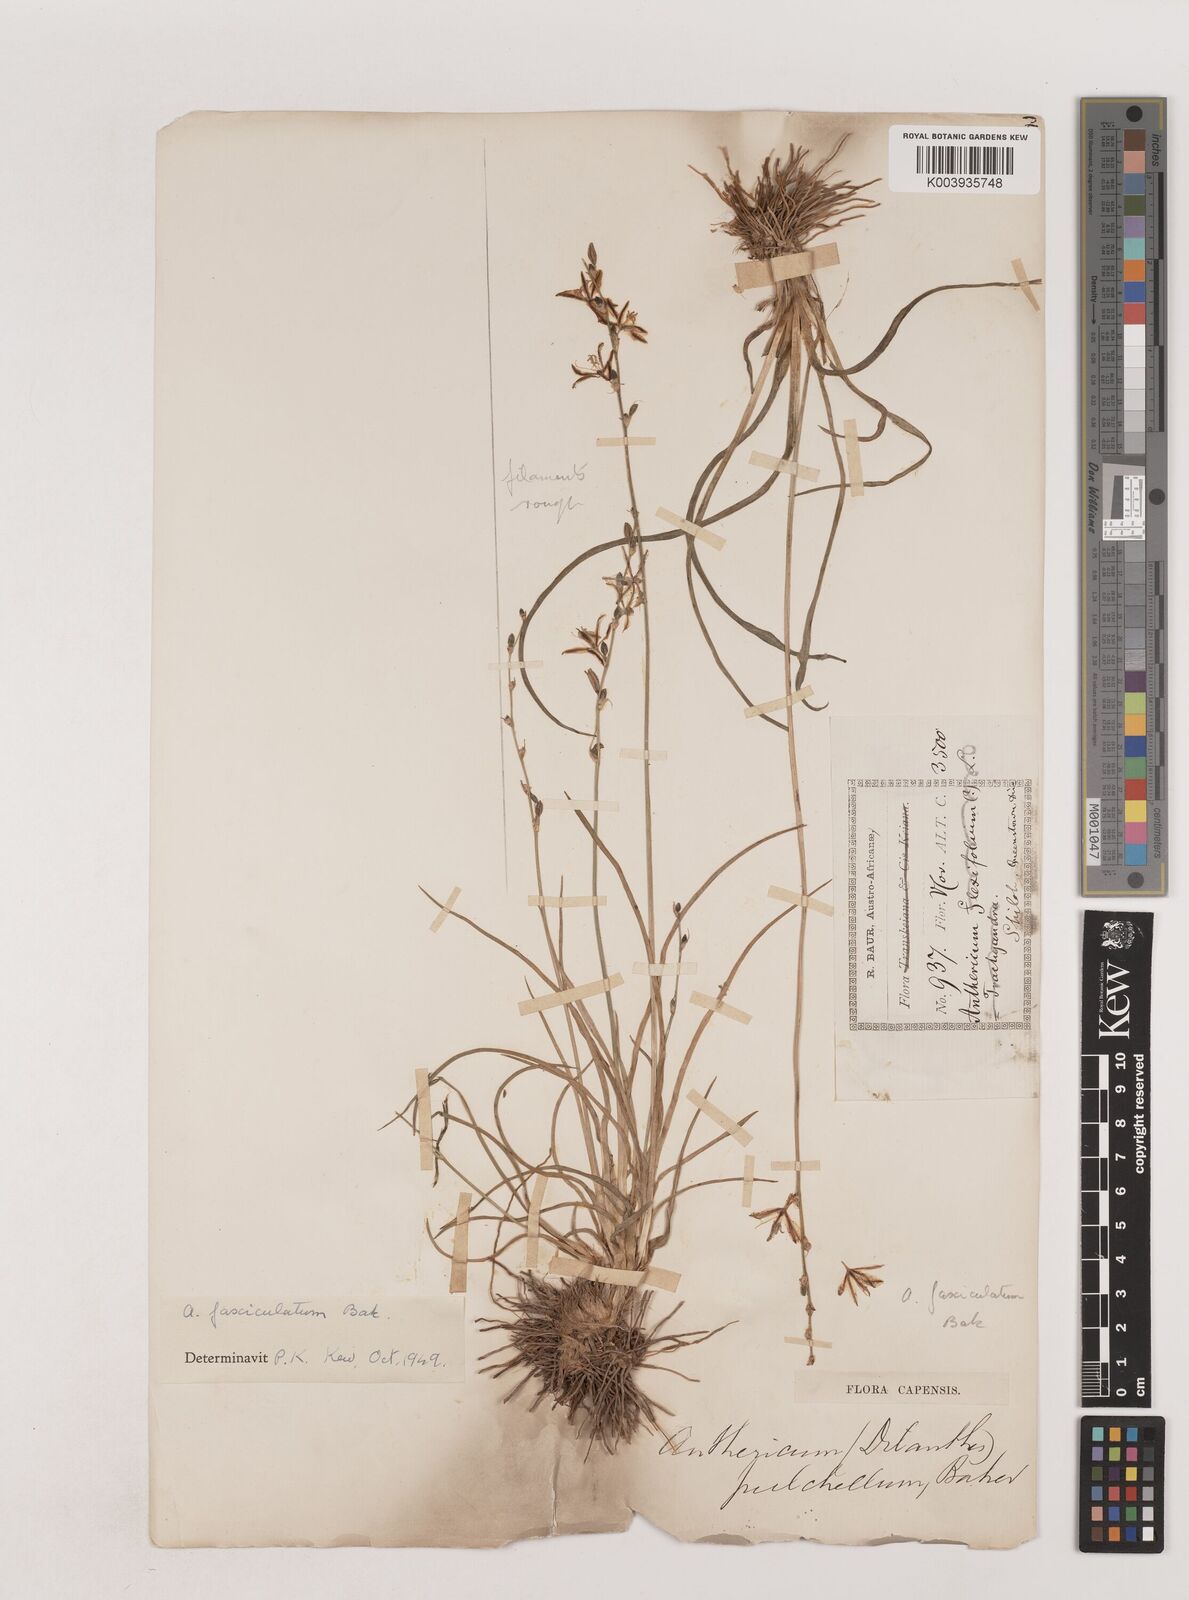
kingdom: Plantae
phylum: Tracheophyta
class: Liliopsida
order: Asparagales
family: Asparagaceae
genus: Chlorophytum
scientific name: Chlorophytum fasciculatum
